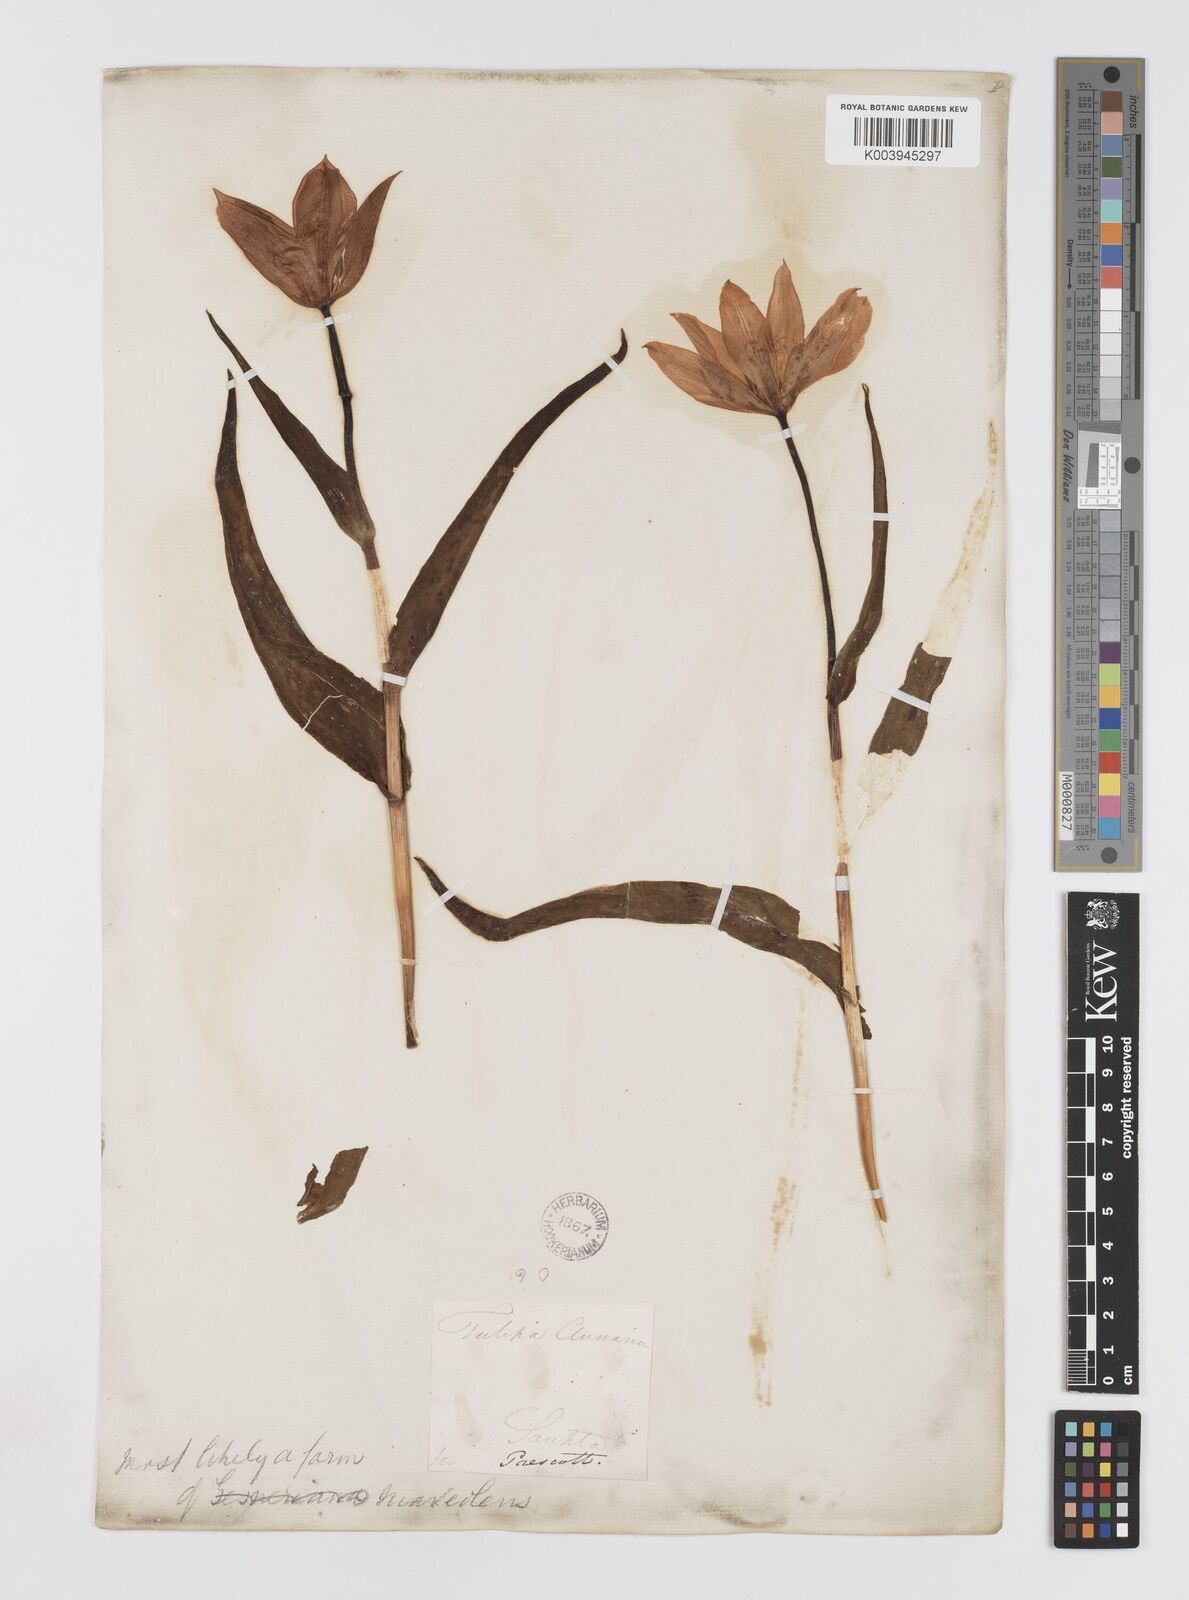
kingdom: Plantae
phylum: Tracheophyta
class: Liliopsida
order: Liliales
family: Liliaceae
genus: Tulipa
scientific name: Tulipa gesneriana
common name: Garden tulip
